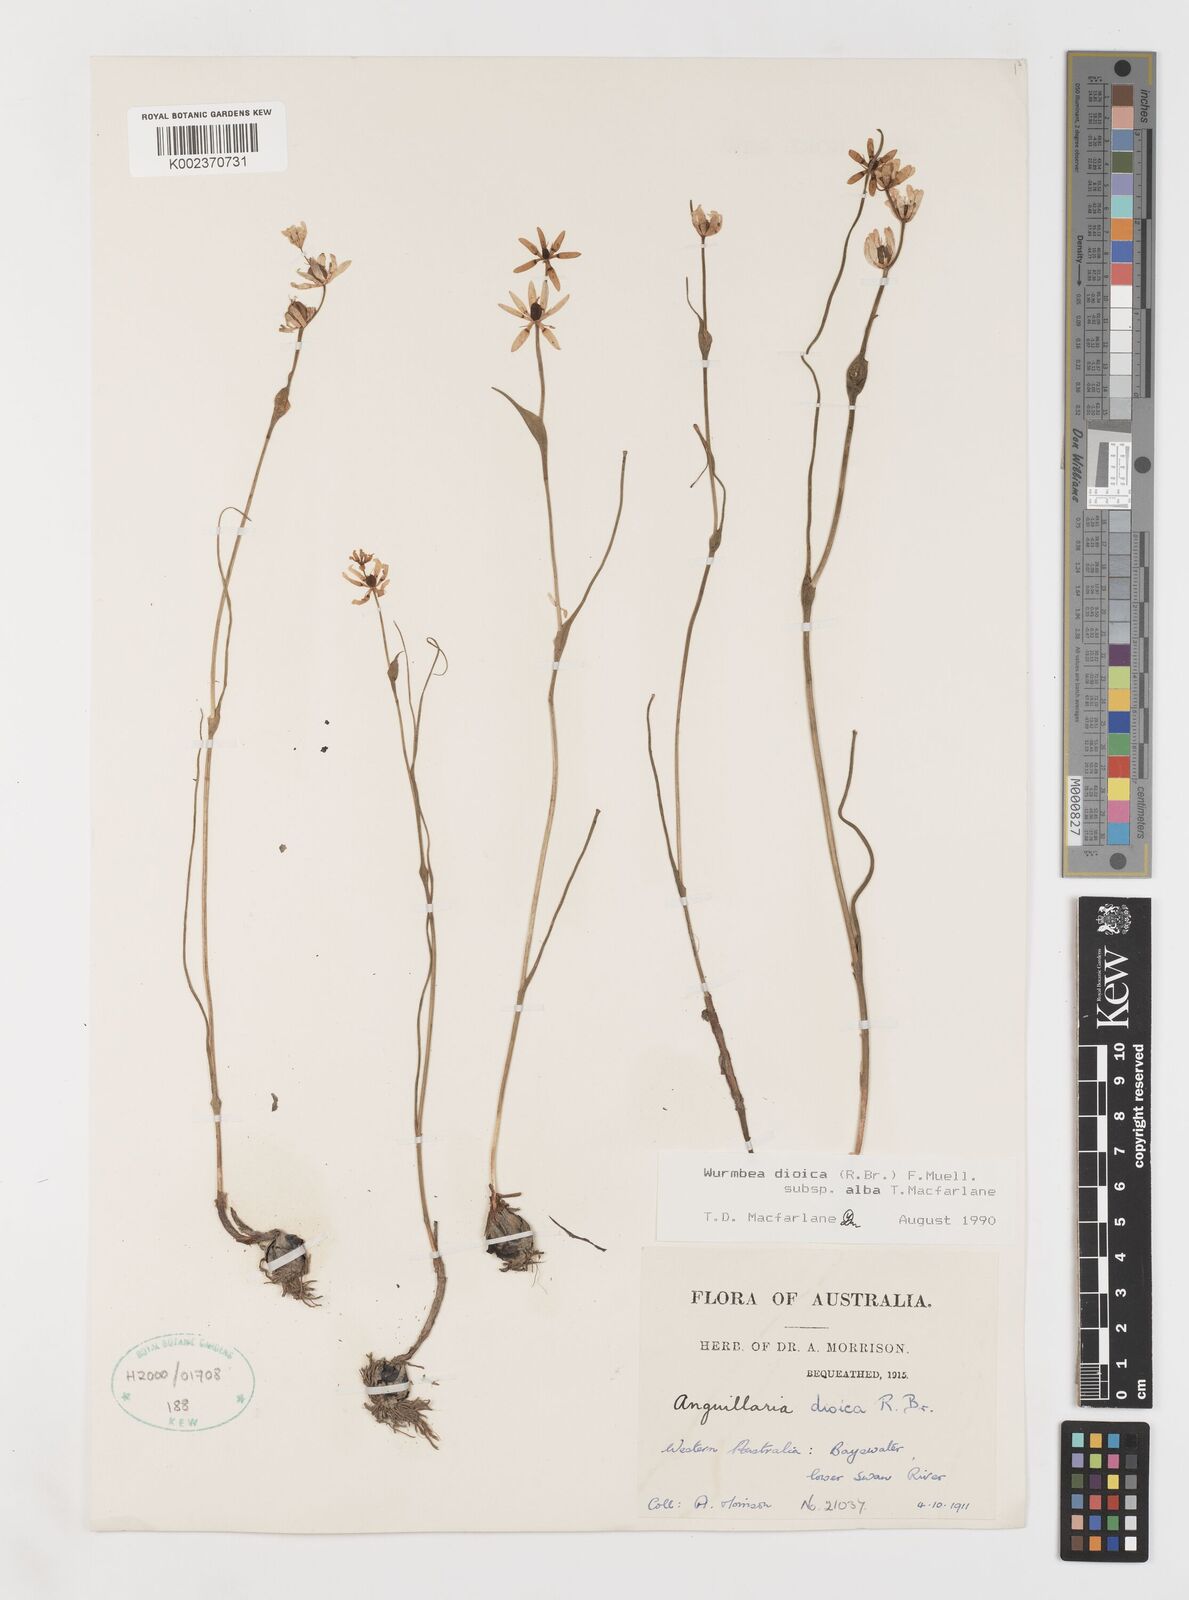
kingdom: Plantae
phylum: Tracheophyta
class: Liliopsida
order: Liliales
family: Colchicaceae
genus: Wurmbea
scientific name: Wurmbea dioica
